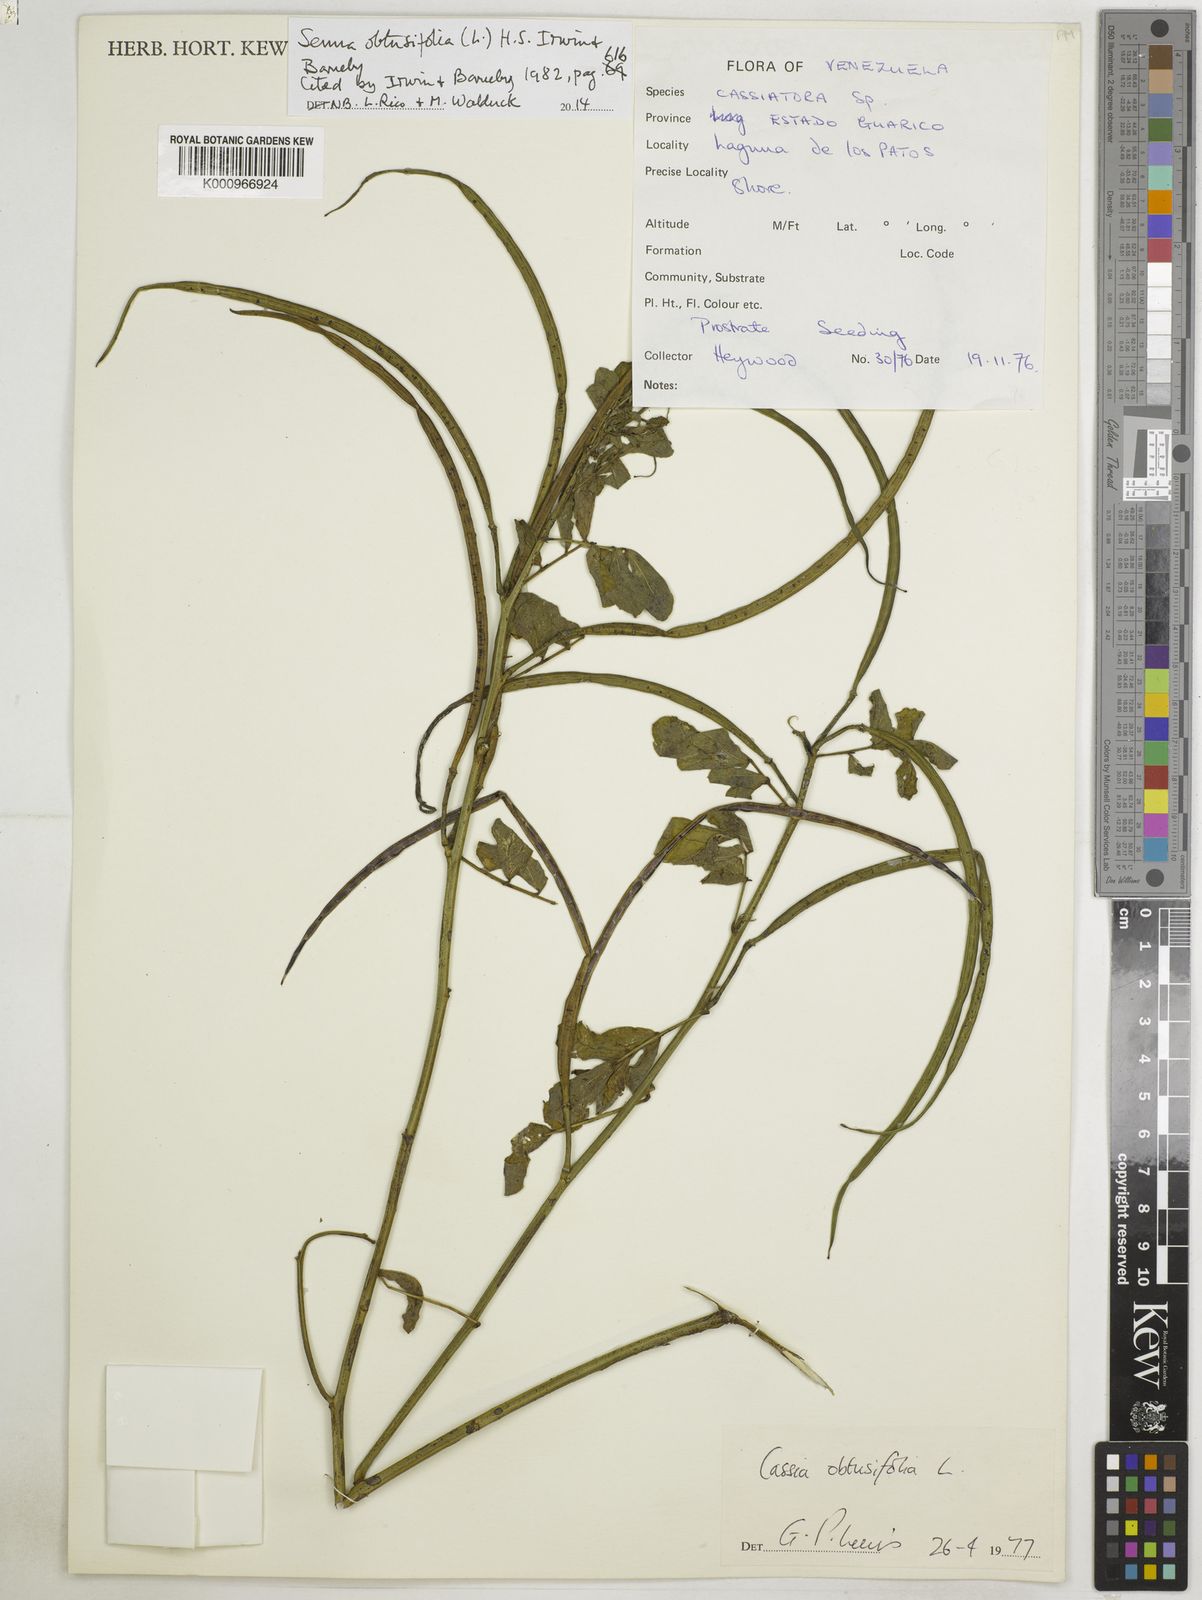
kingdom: Plantae
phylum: Tracheophyta
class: Magnoliopsida
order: Fabales
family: Fabaceae
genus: Senna
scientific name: Senna obtusifolia
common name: Java-bean
